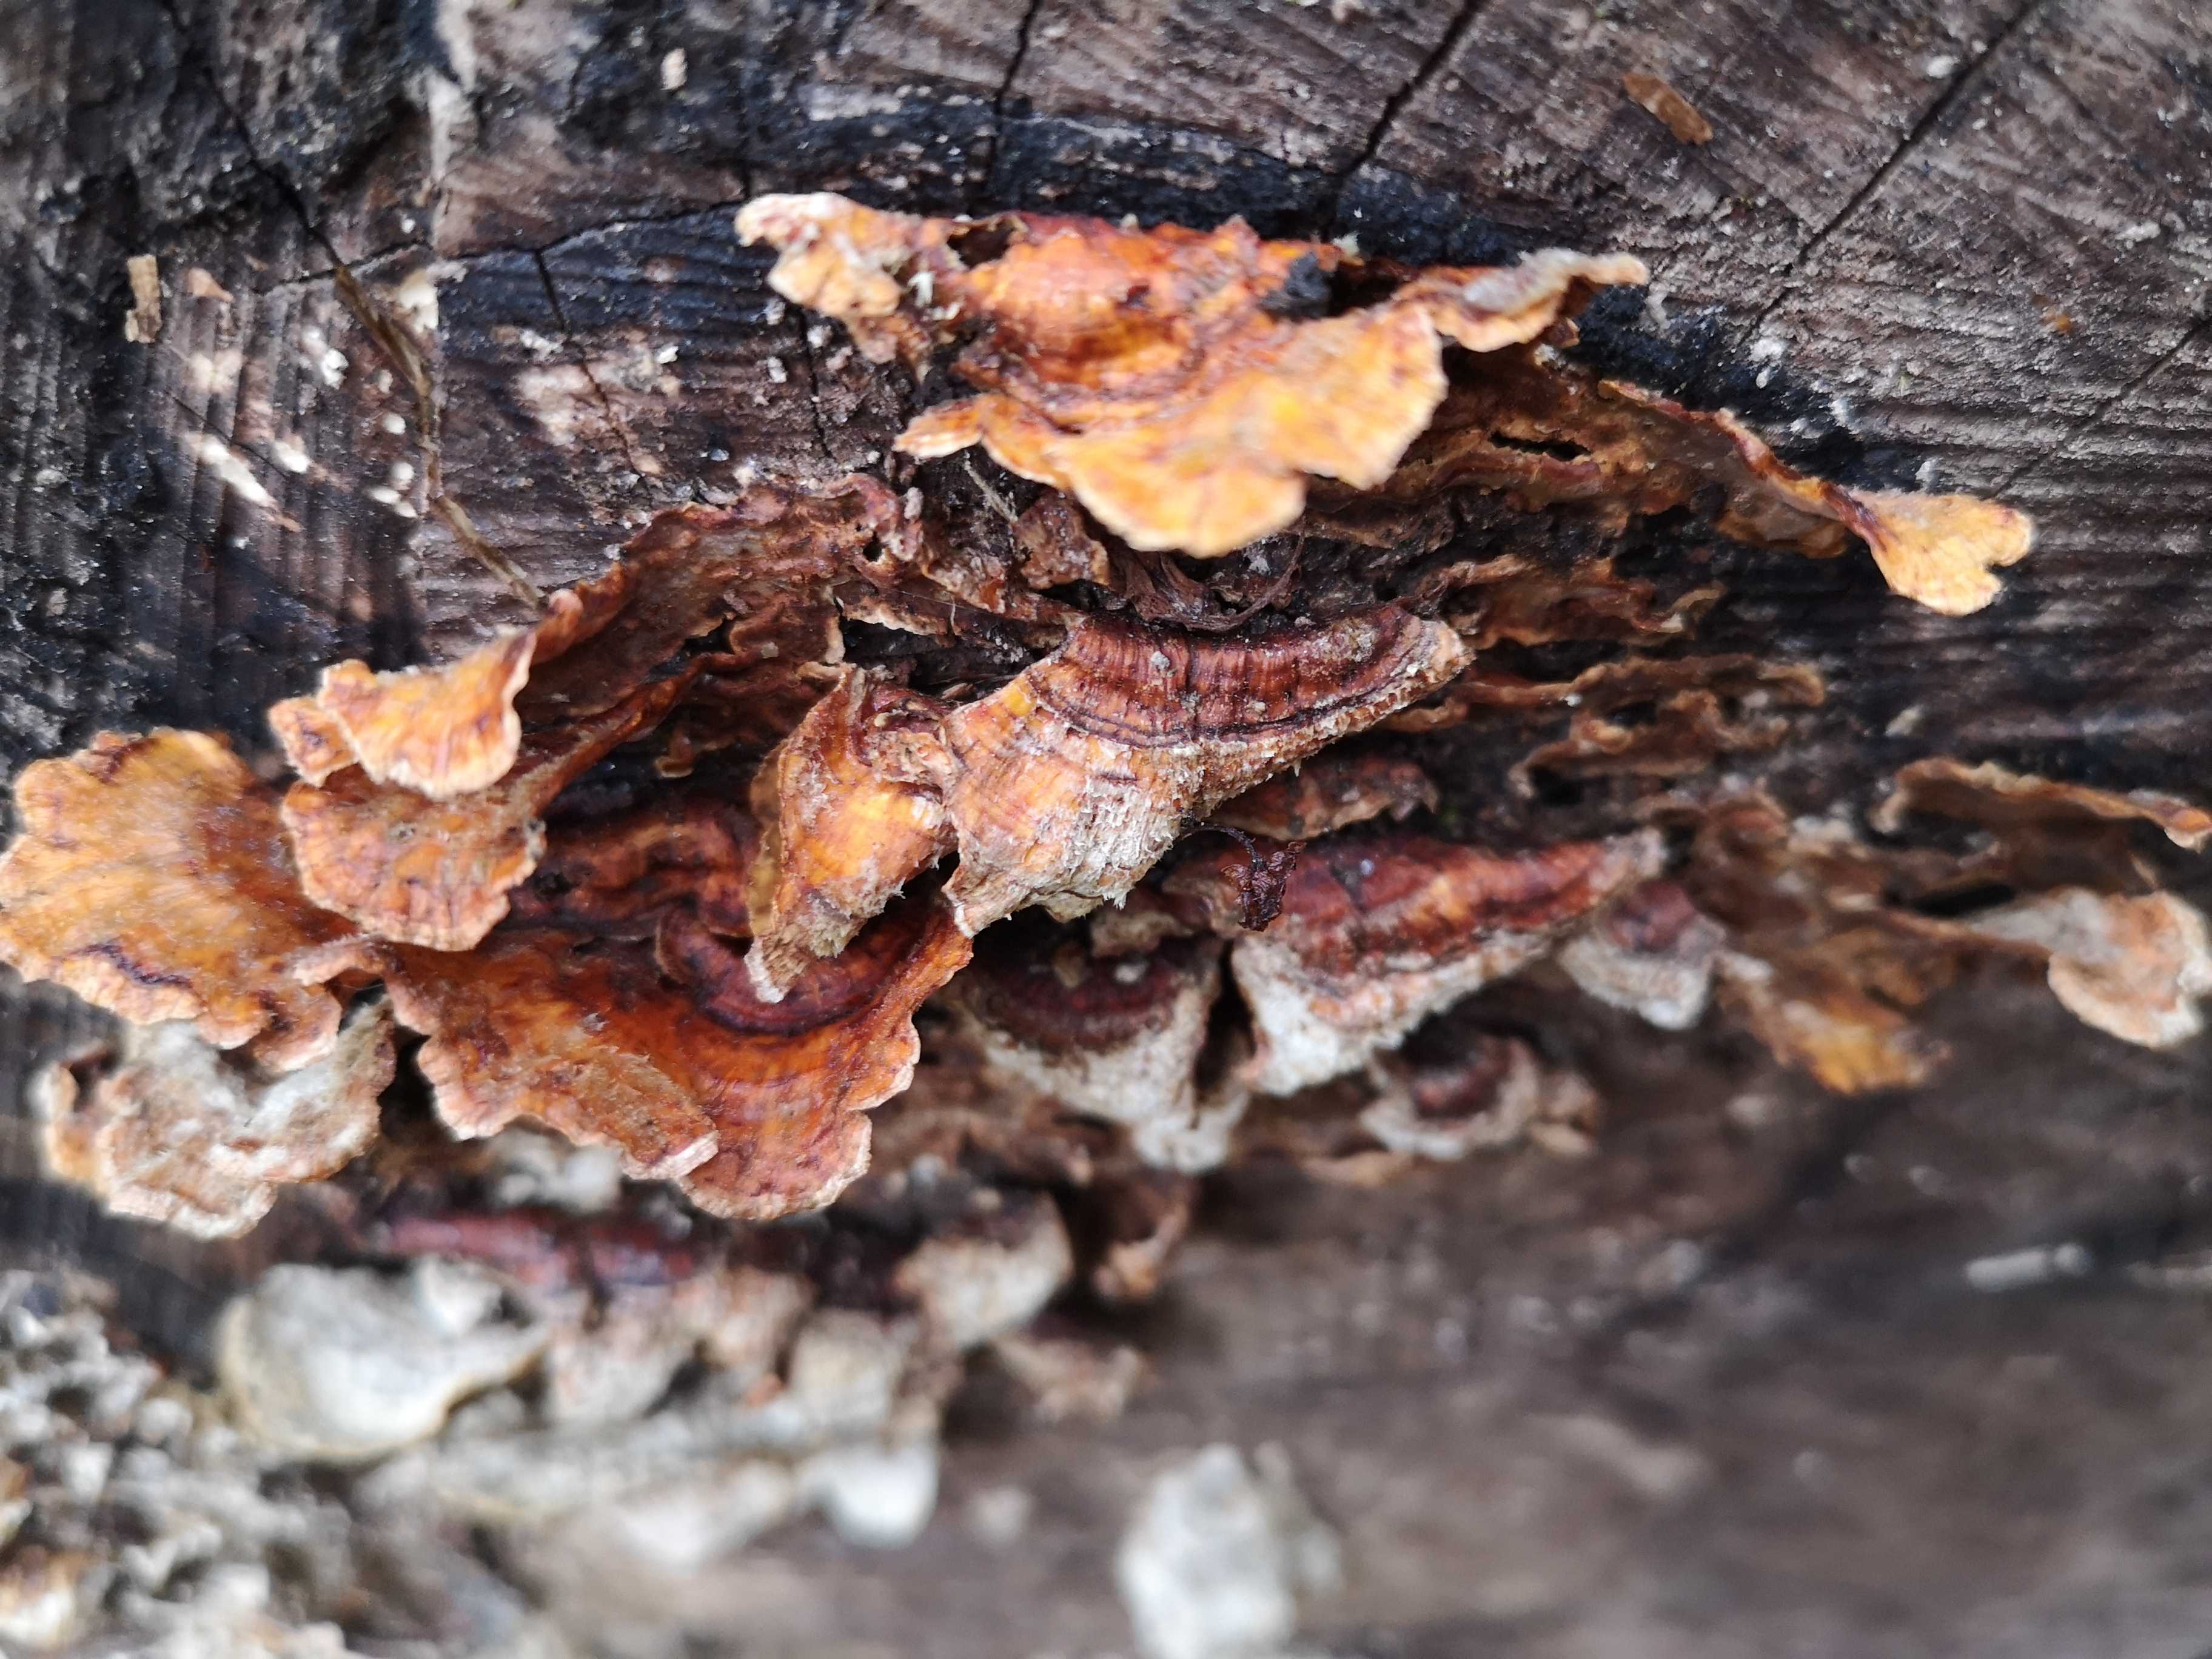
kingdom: Fungi
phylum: Basidiomycota
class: Agaricomycetes
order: Russulales
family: Stereaceae
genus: Stereum
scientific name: Stereum
